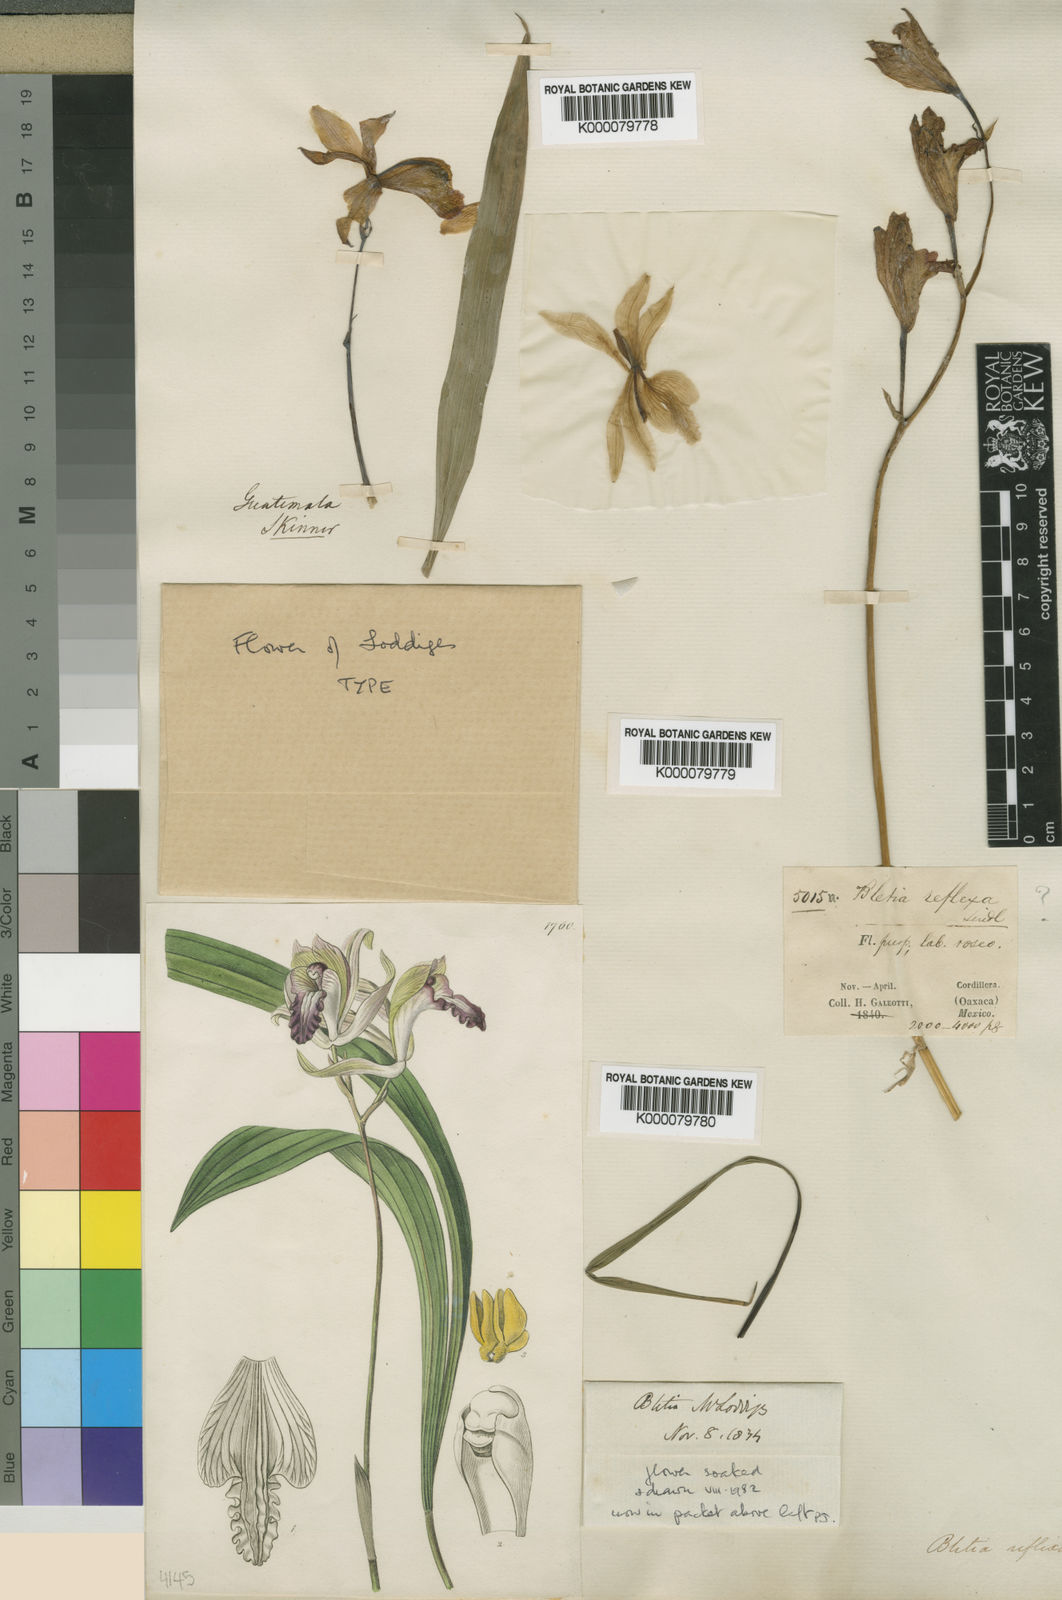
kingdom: Plantae
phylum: Tracheophyta
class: Liliopsida
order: Asparagales
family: Orchidaceae
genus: Bletia
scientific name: Bletia reflexa
